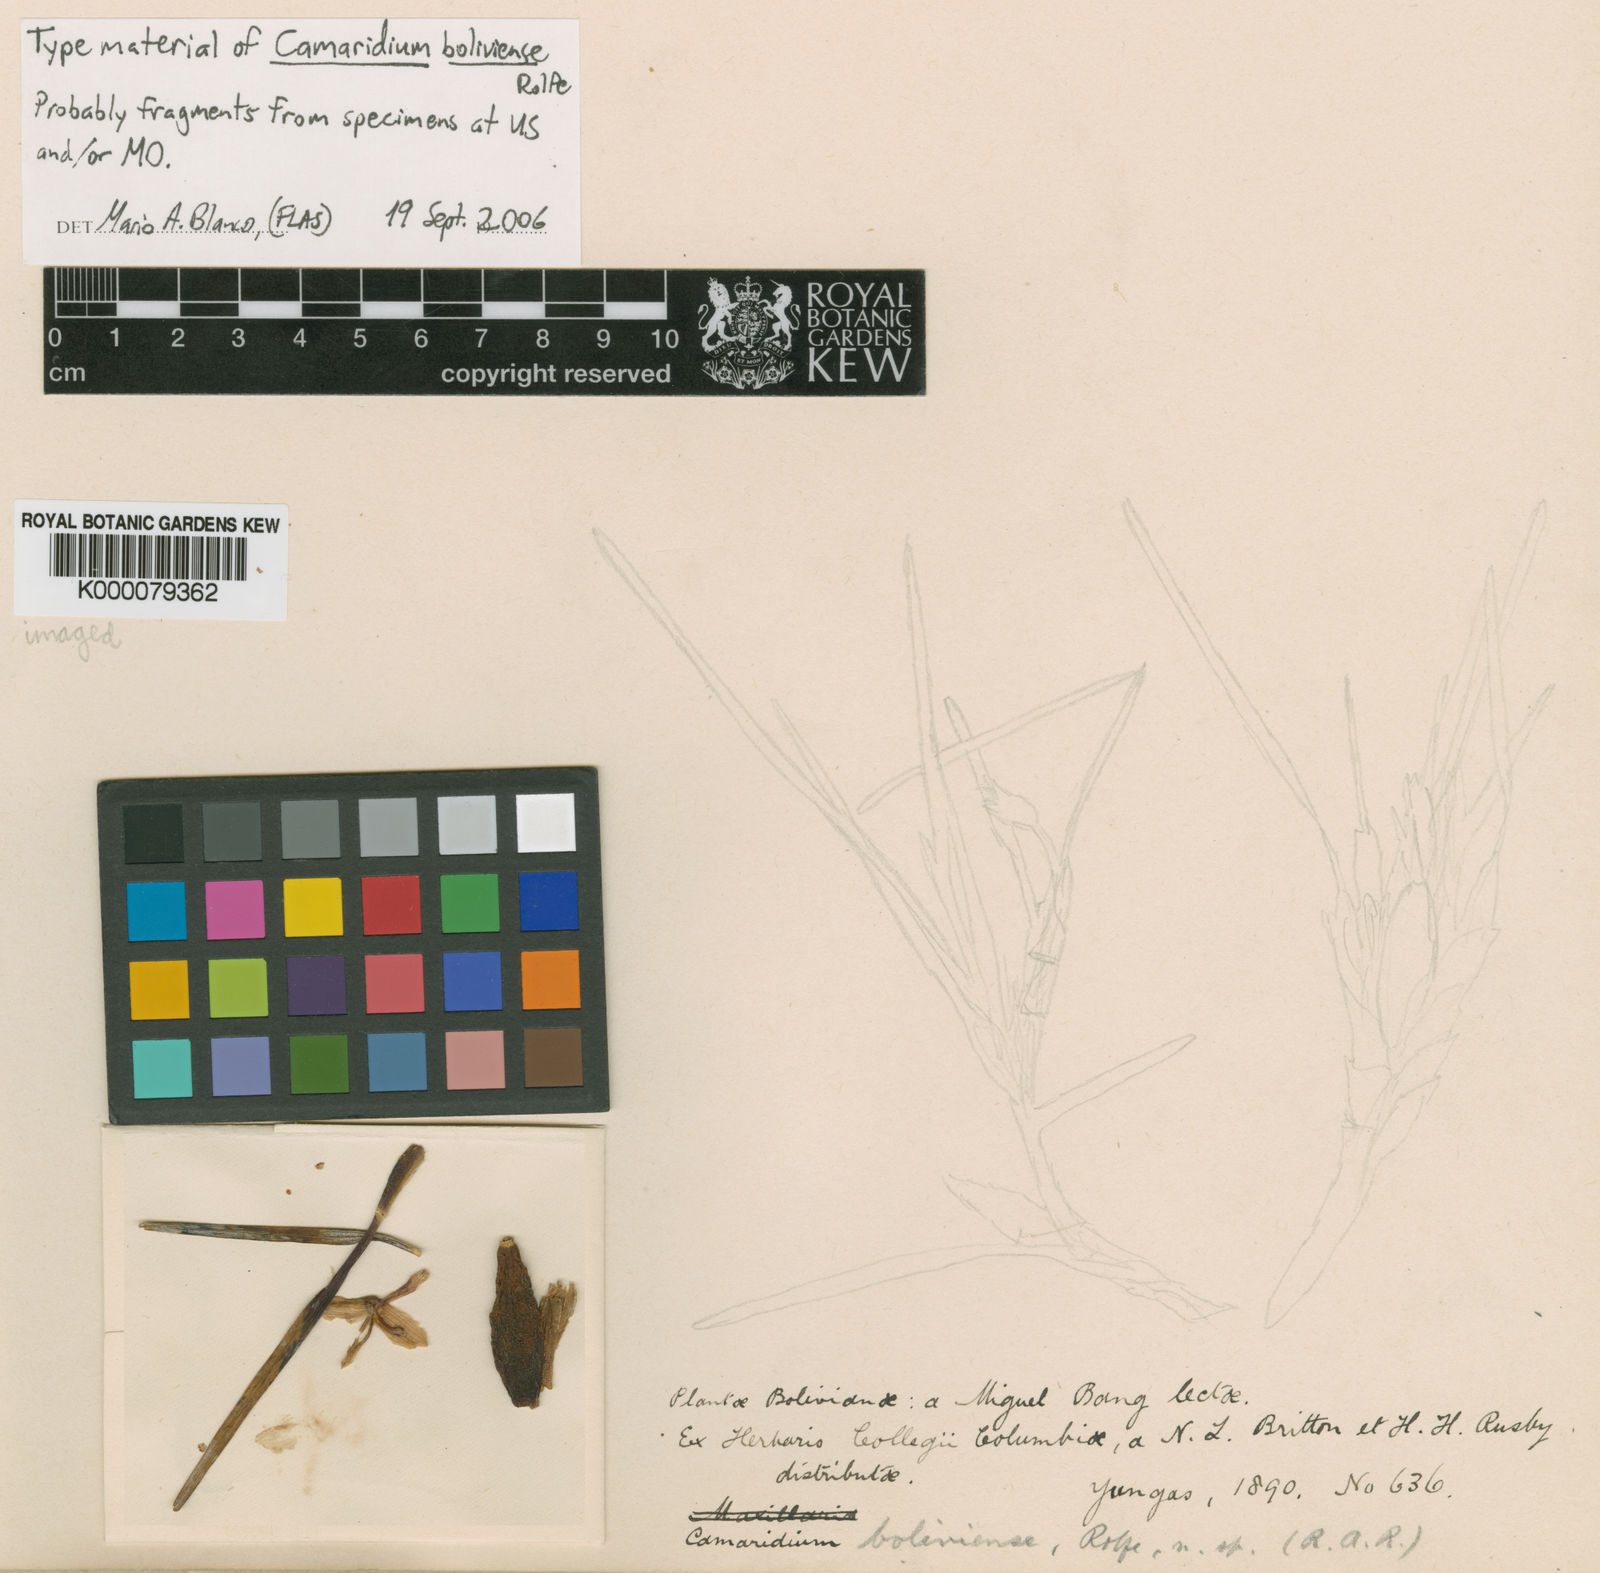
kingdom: Plantae
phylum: Tracheophyta
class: Liliopsida
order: Asparagales
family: Orchidaceae
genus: Maxillaria
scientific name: Maxillaria
